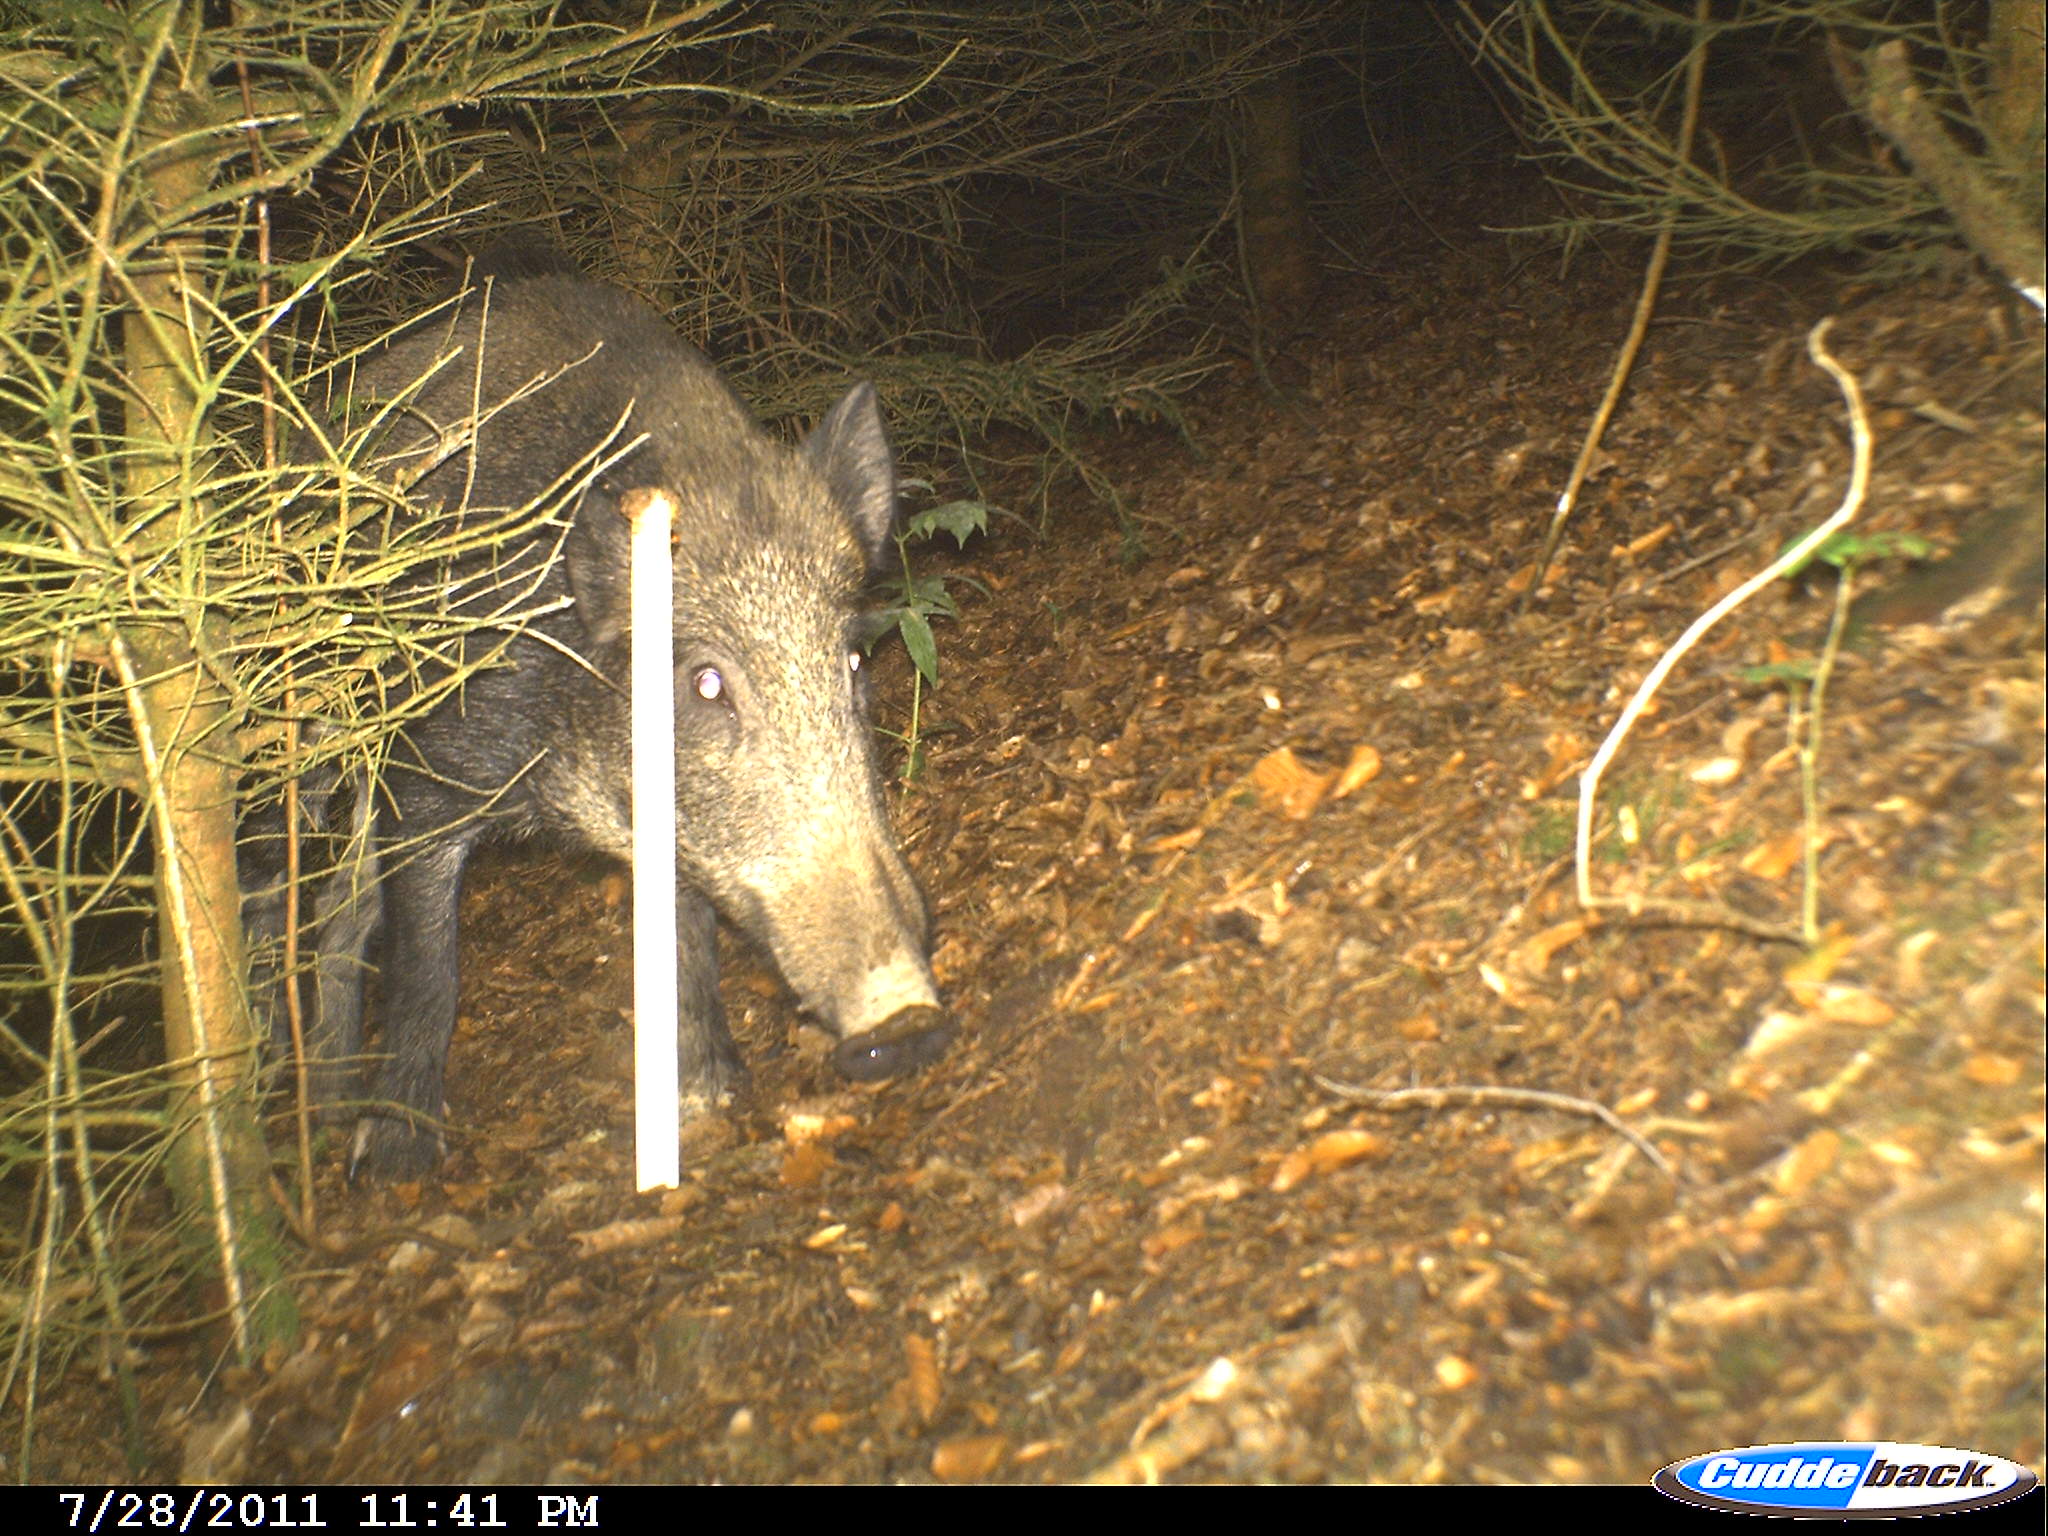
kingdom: Animalia
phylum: Chordata
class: Mammalia
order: Artiodactyla
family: Suidae
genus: Sus
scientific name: Sus scrofa
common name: Wild boar
